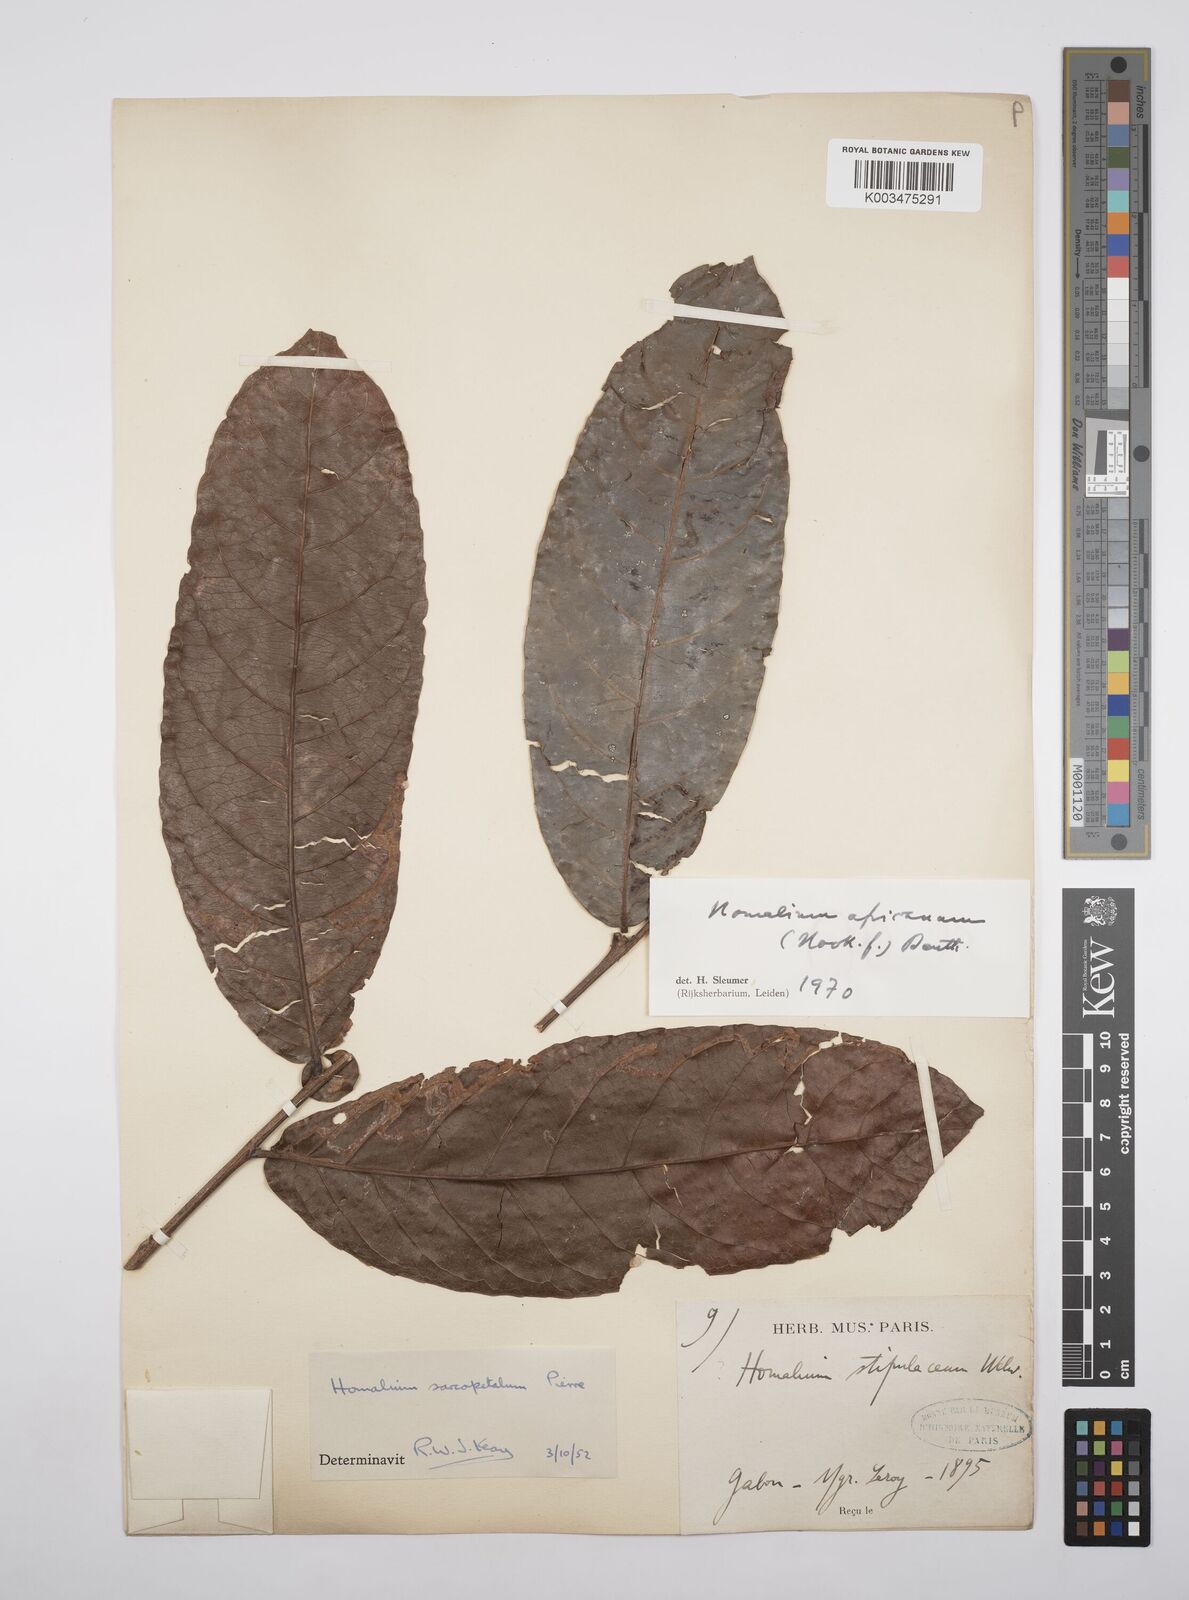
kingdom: Plantae
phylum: Tracheophyta
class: Magnoliopsida
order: Malpighiales
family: Salicaceae
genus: Homalium
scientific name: Homalium africanum
